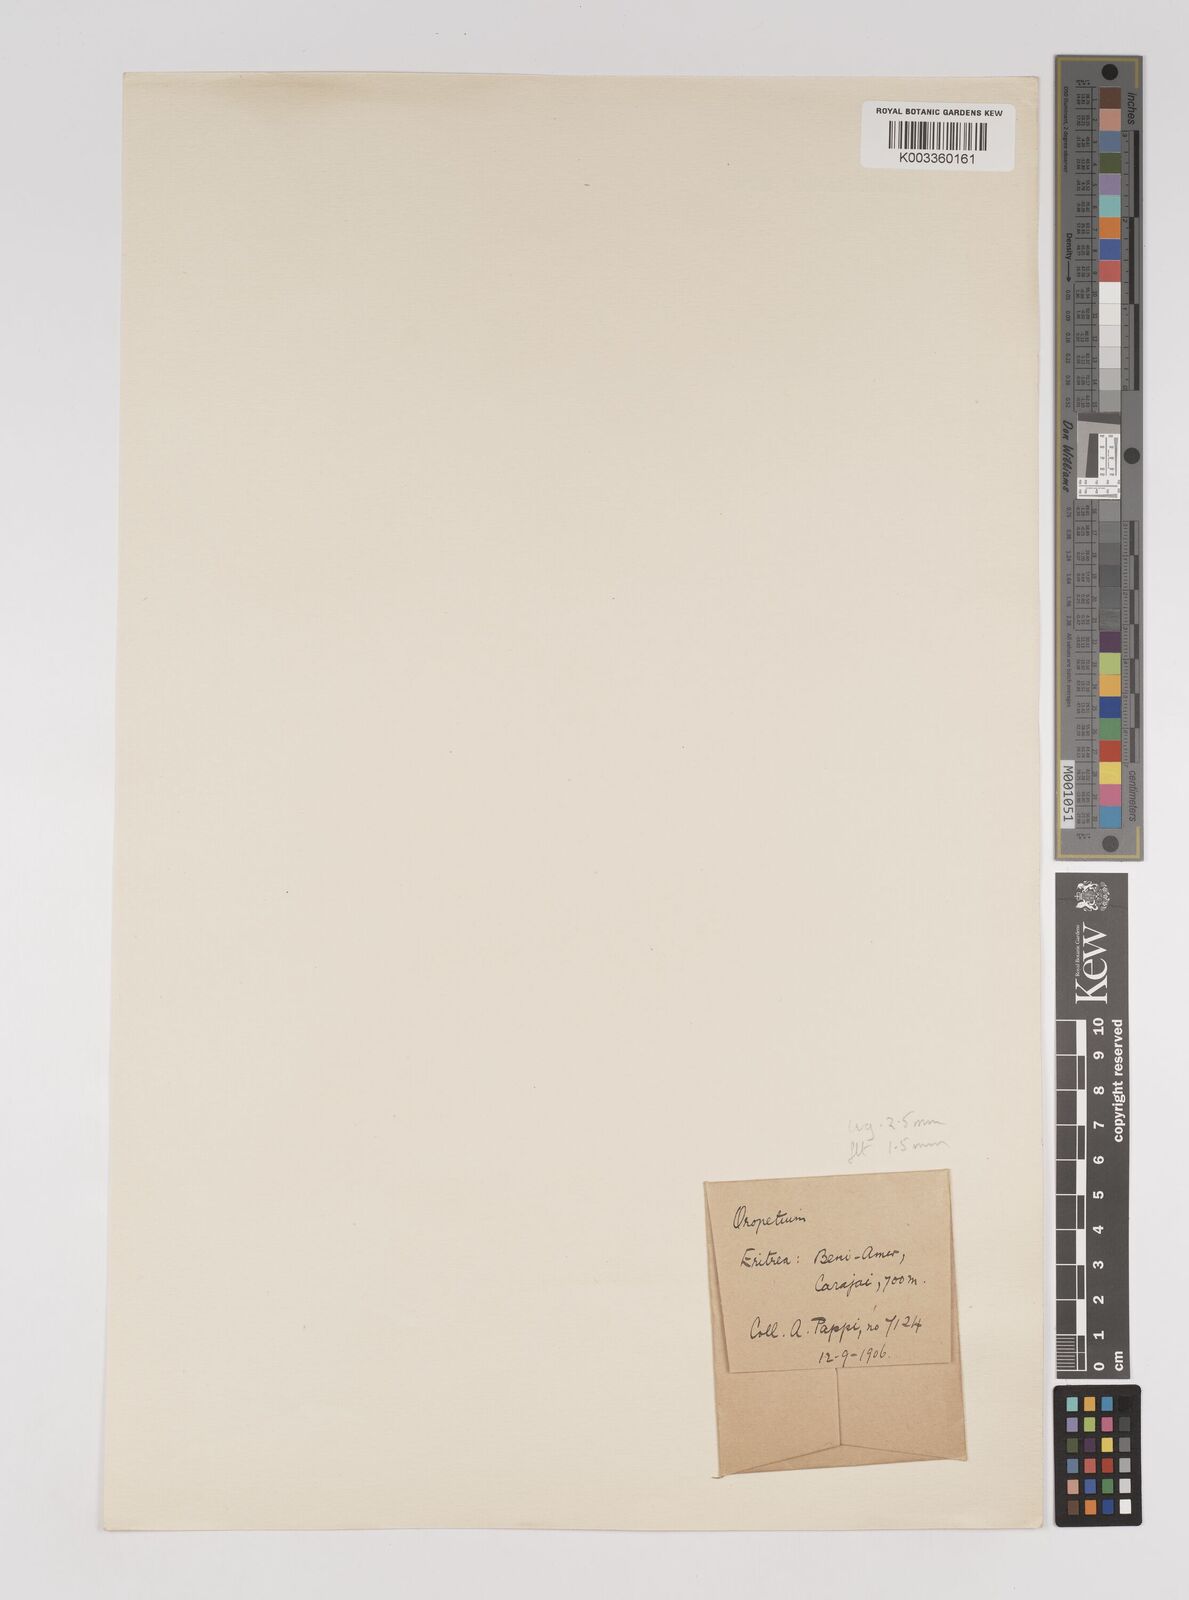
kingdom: Plantae
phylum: Tracheophyta
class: Liliopsida
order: Poales
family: Poaceae
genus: Oropetium
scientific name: Oropetium capense
